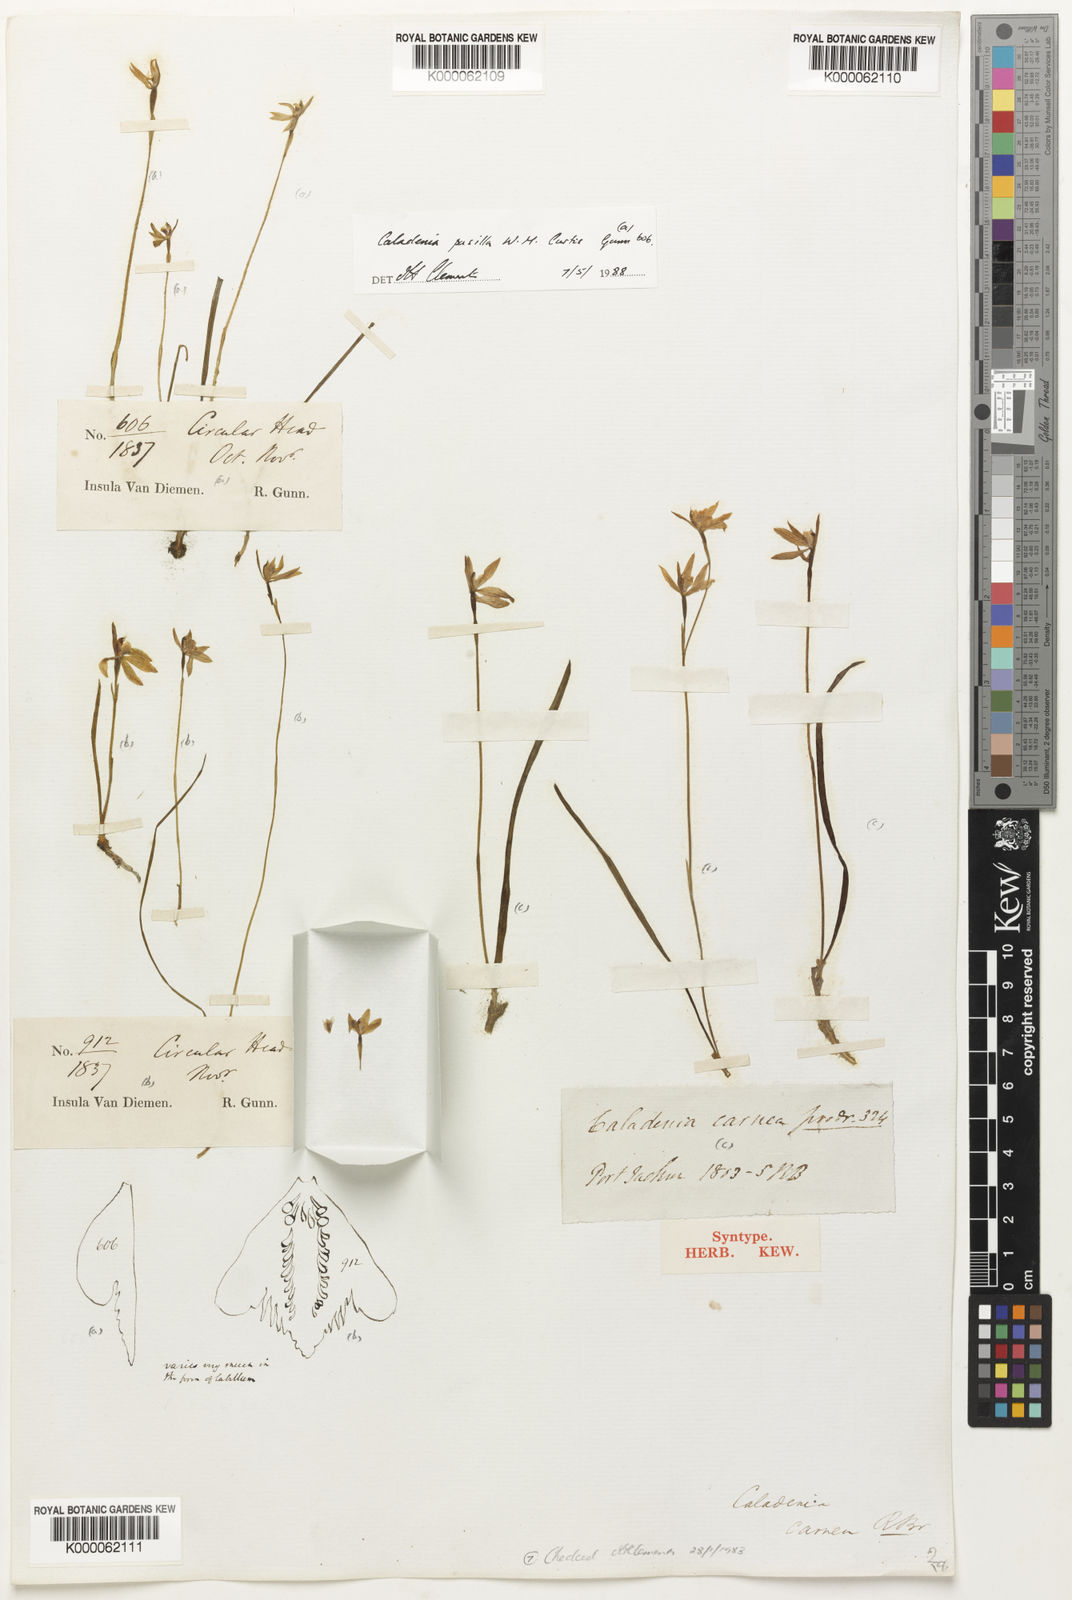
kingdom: Plantae
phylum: Tracheophyta
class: Liliopsida
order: Asparagales
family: Orchidaceae
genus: Caladenia
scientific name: Caladenia carnea
